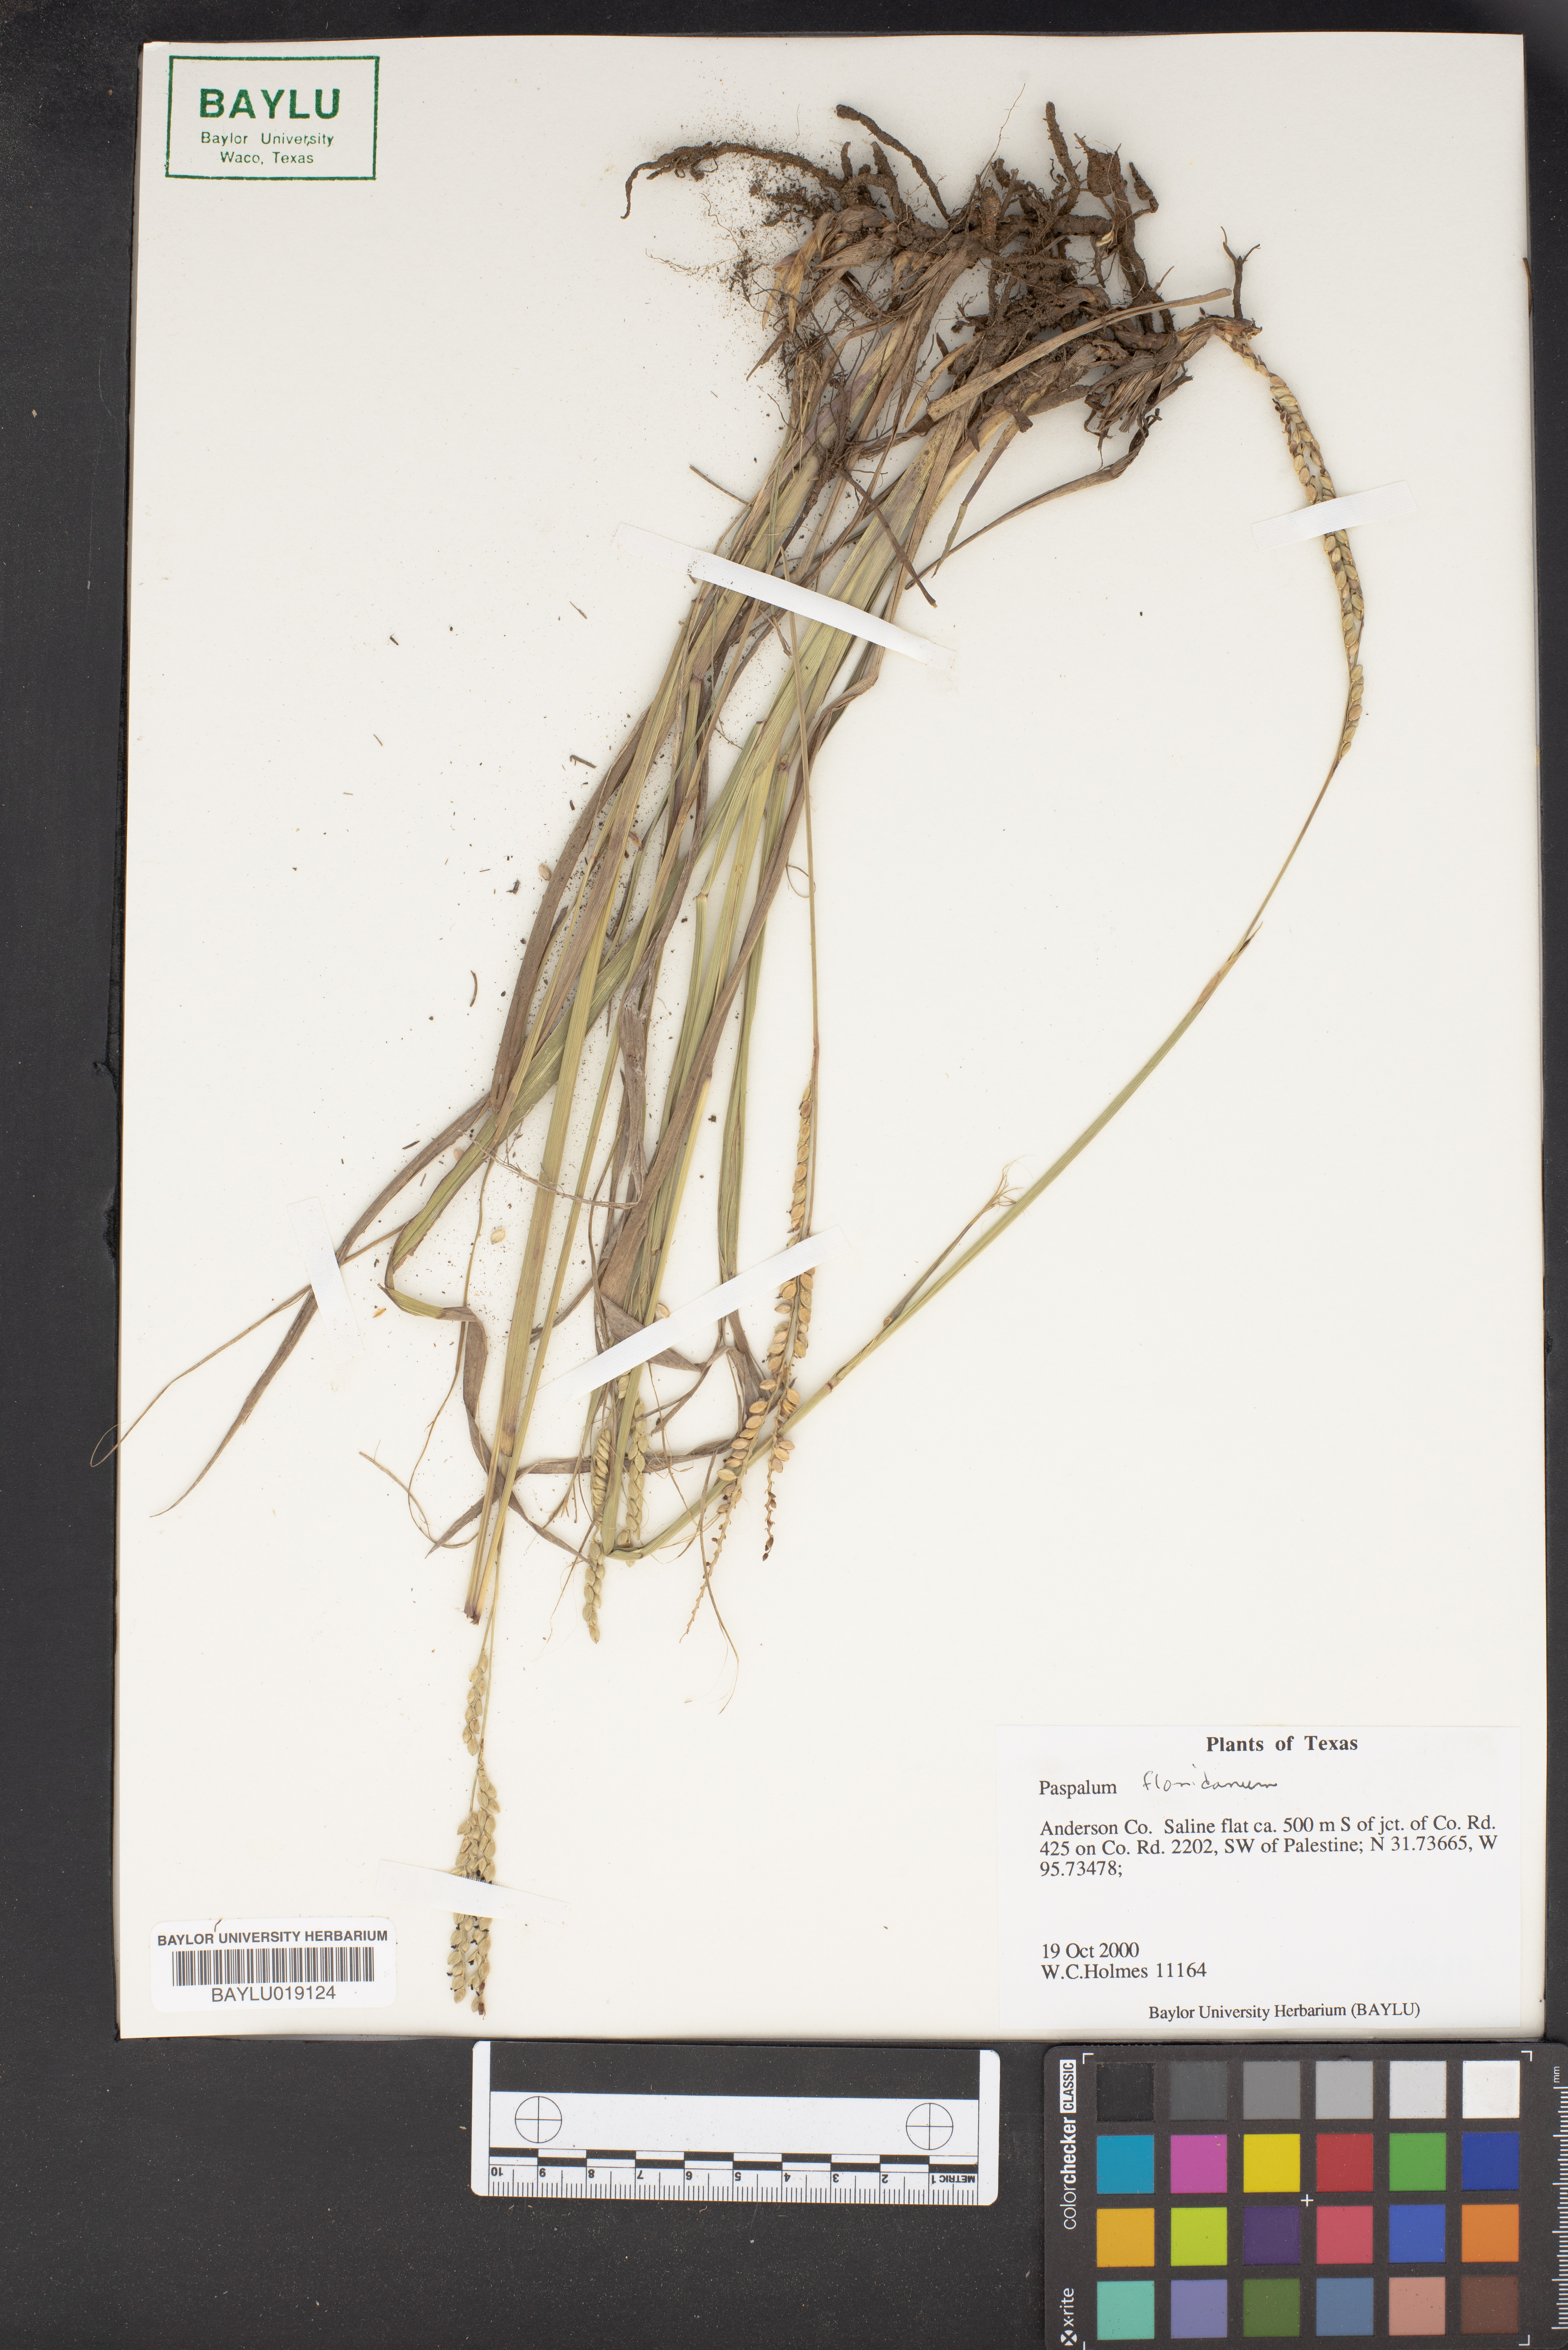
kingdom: Plantae
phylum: Tracheophyta
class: Liliopsida
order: Poales
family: Poaceae
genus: Paspalum
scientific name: Paspalum floridanum
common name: Florida paspalum
